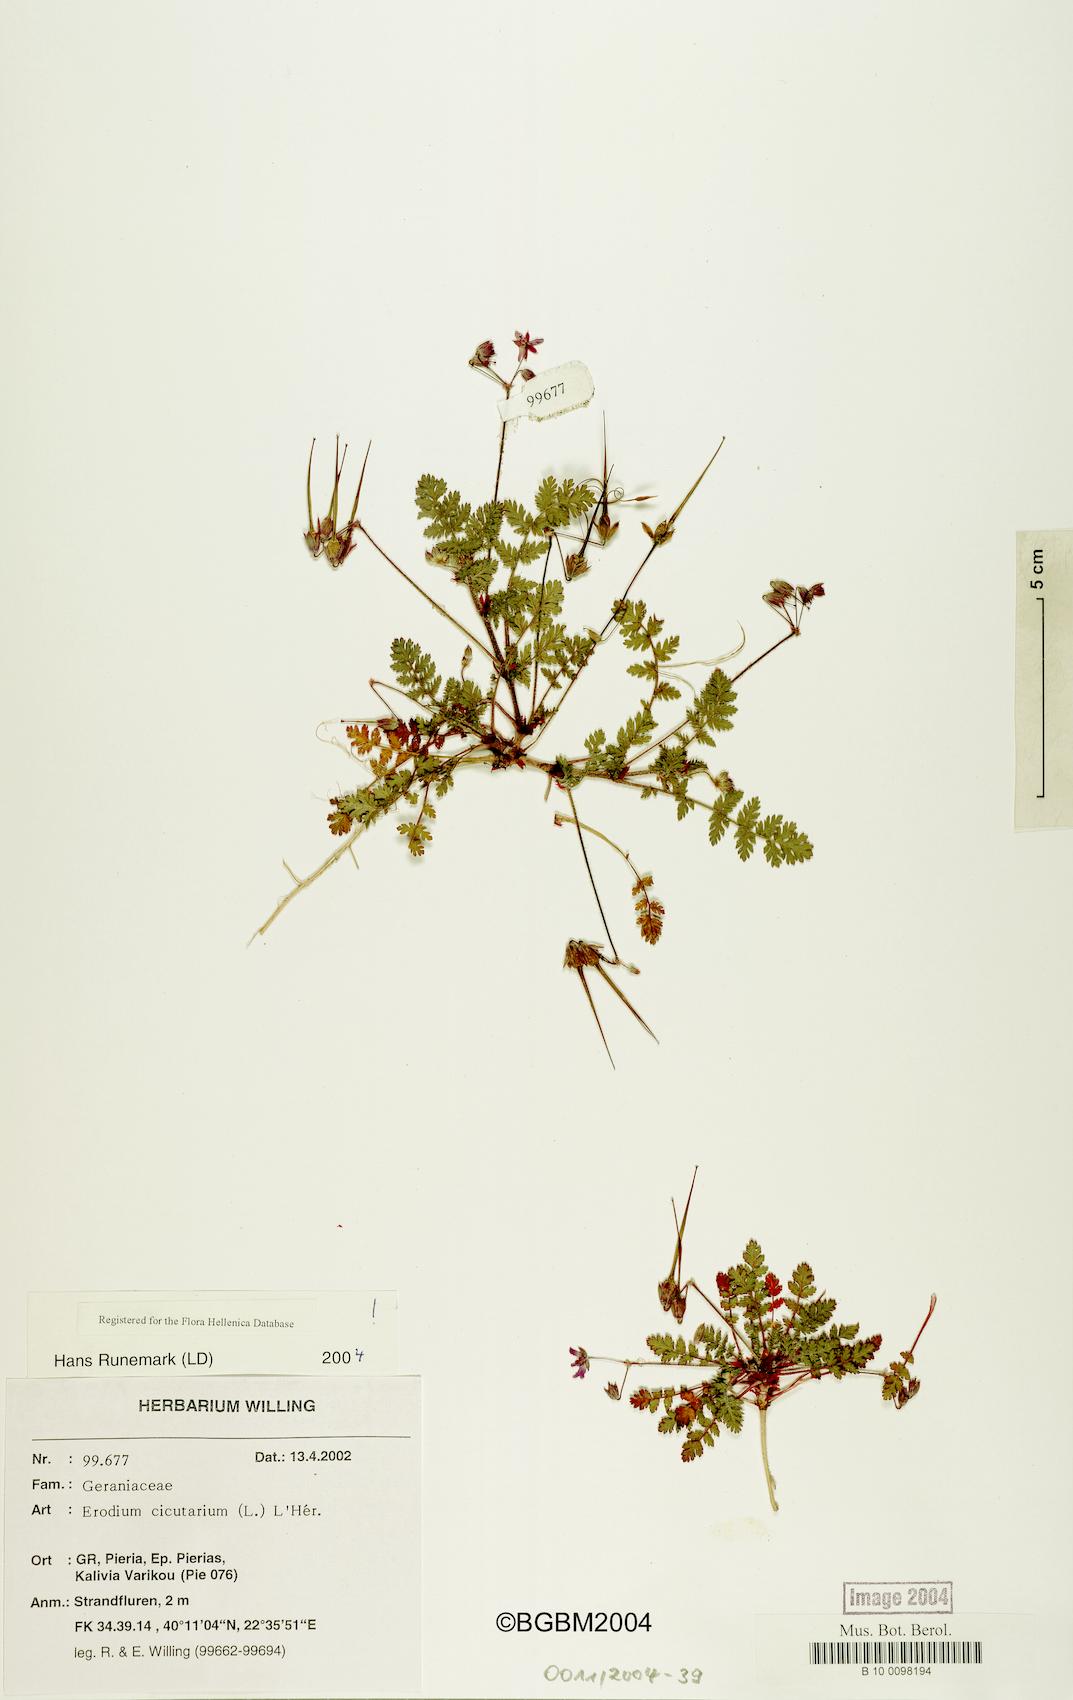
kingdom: Plantae
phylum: Tracheophyta
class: Magnoliopsida
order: Geraniales
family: Geraniaceae
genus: Erodium
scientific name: Erodium cicutarium
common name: Common stork's-bill
